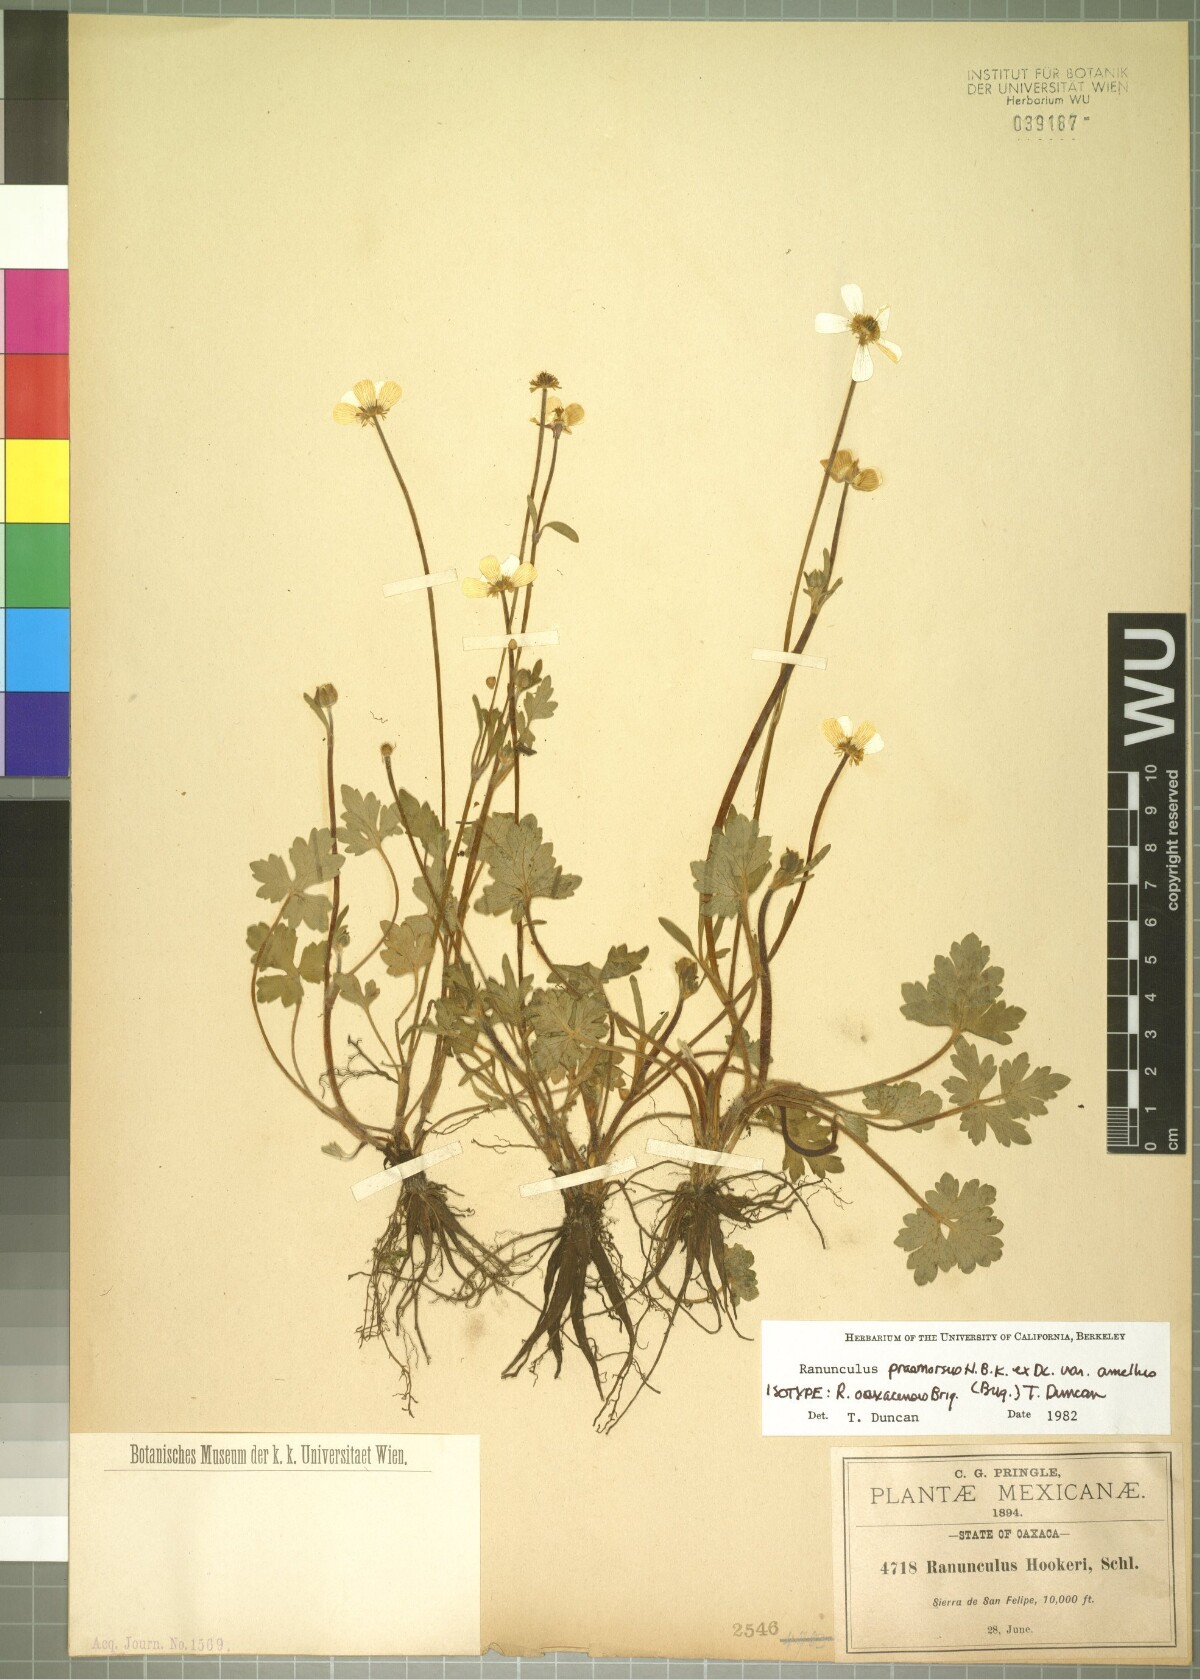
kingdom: Plantae
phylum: Tracheophyta
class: Magnoliopsida
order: Ranunculales
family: Ranunculaceae
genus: Ranunculus
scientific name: Ranunculus oaxacensis
